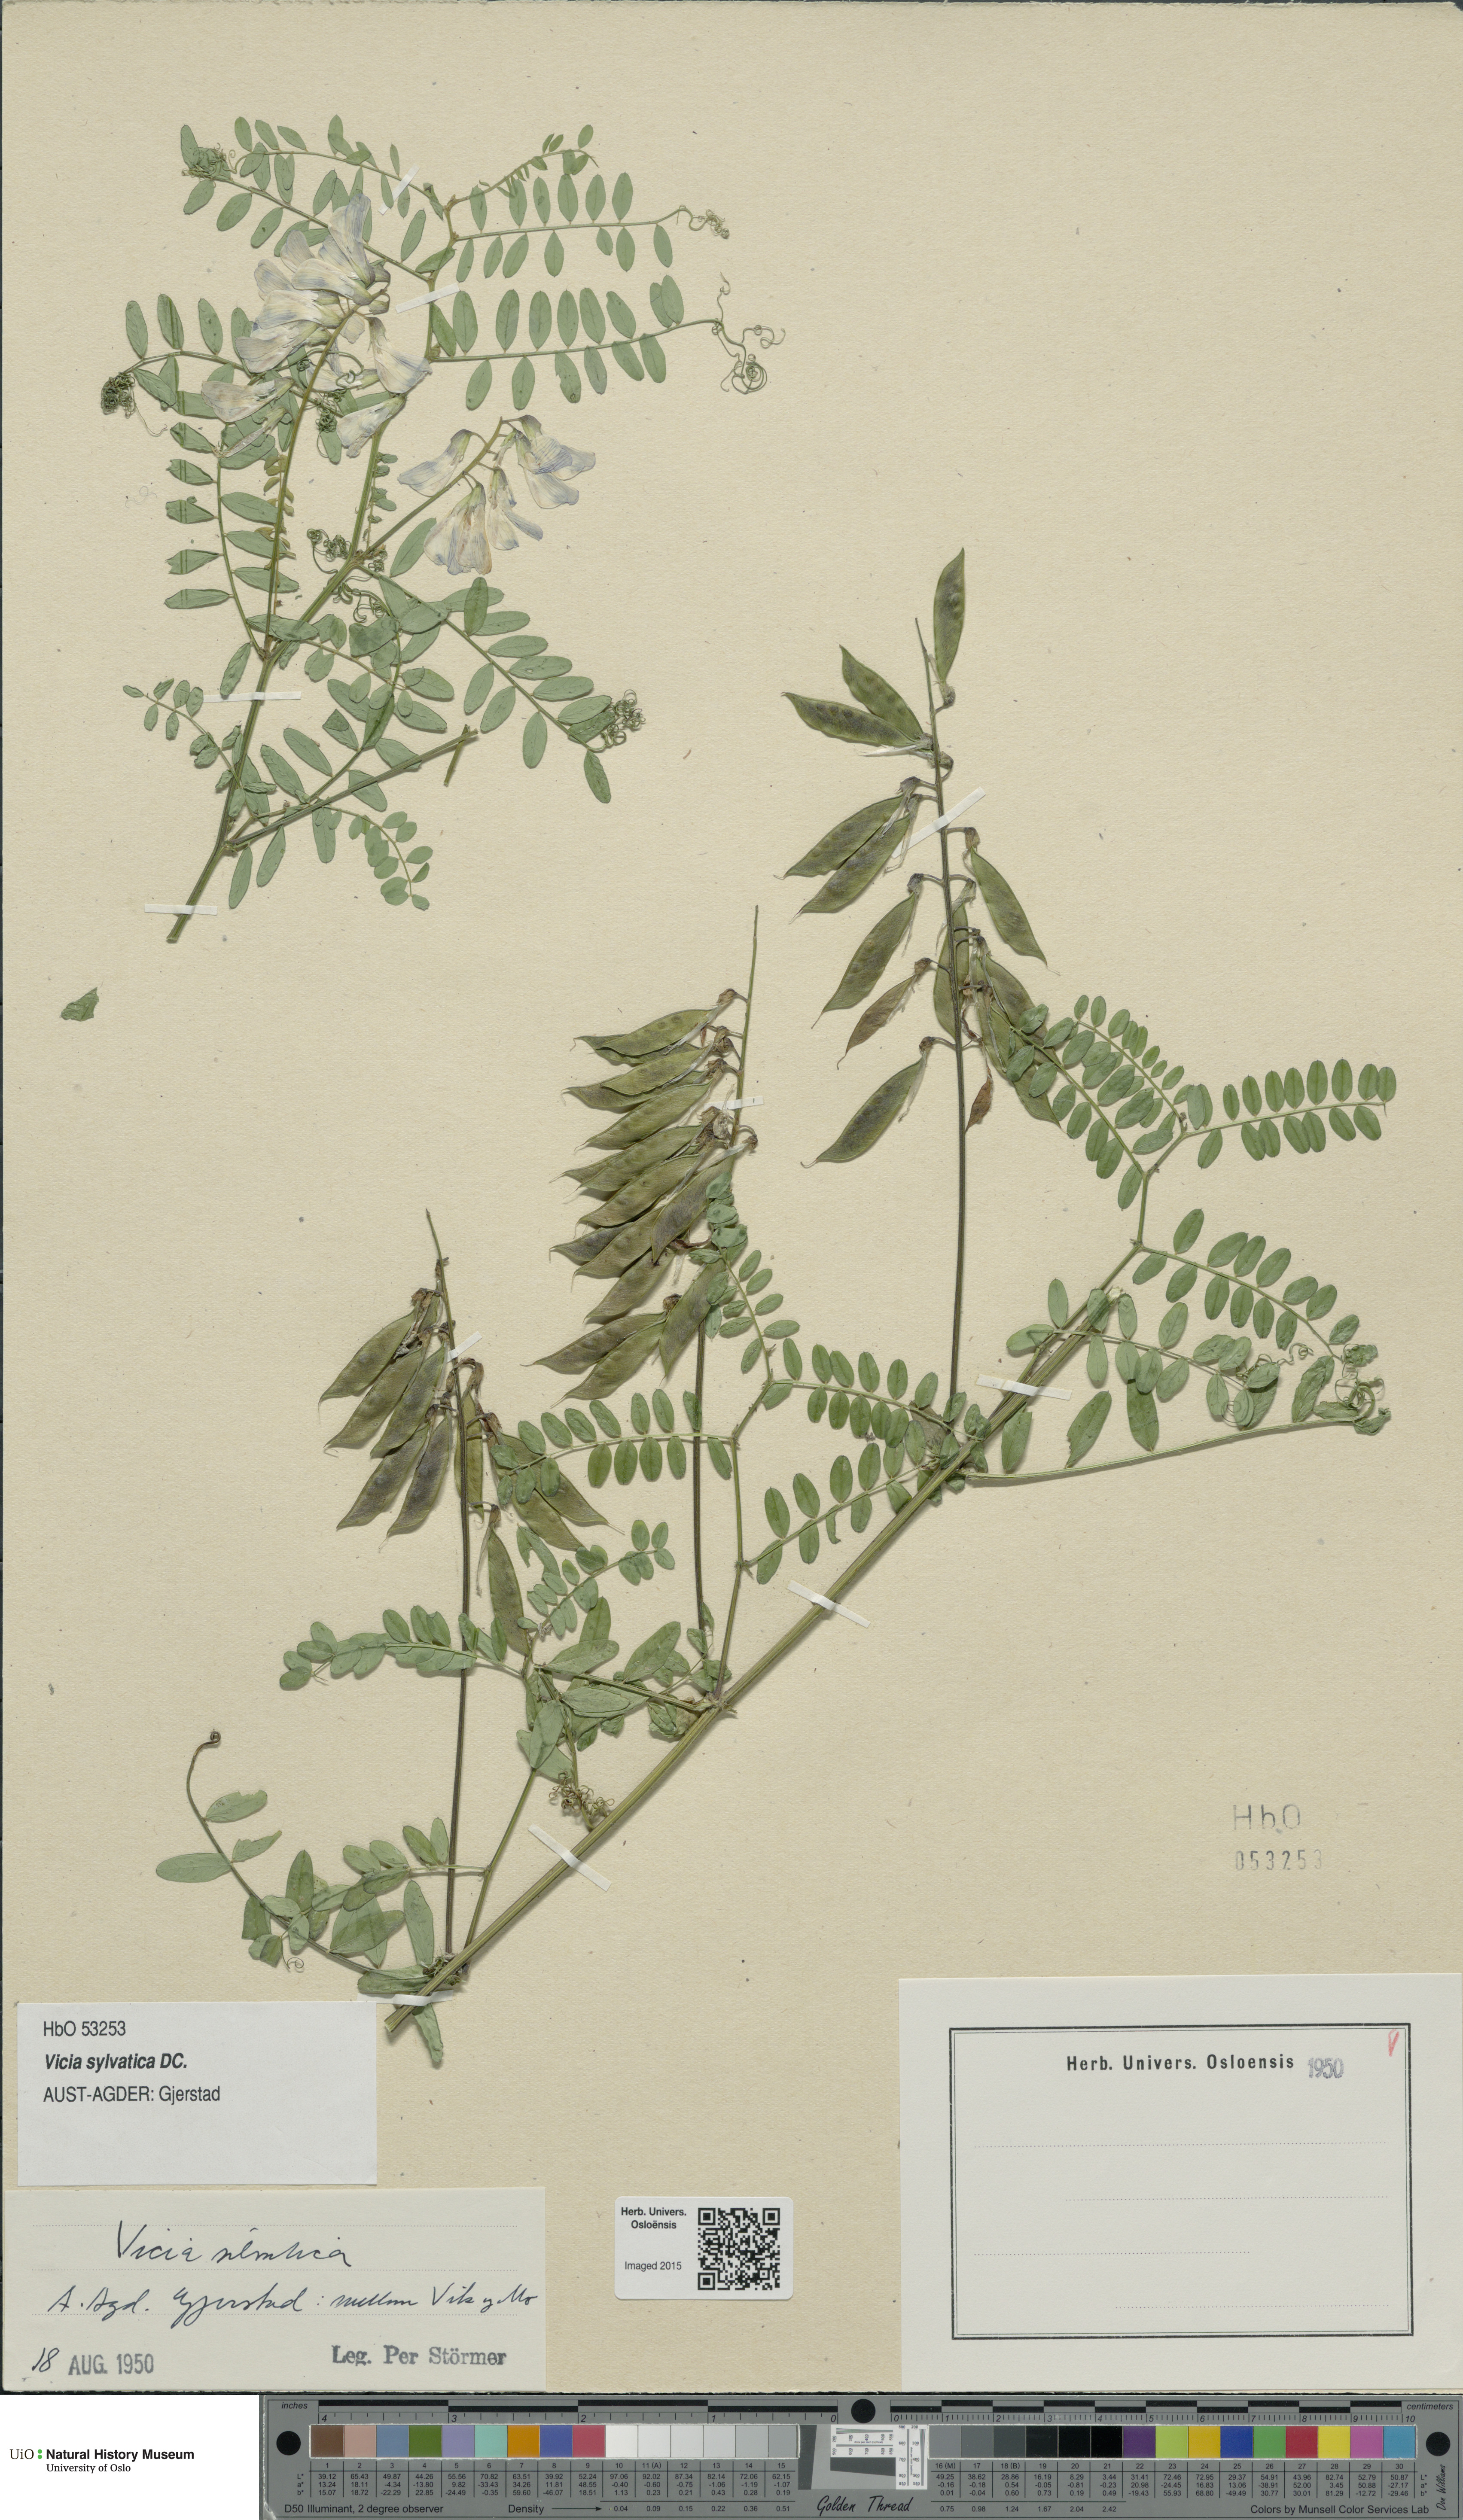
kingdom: Plantae
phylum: Tracheophyta
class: Magnoliopsida
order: Fabales
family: Fabaceae
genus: Vicia
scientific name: Vicia sylvatica
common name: Wood vetch
